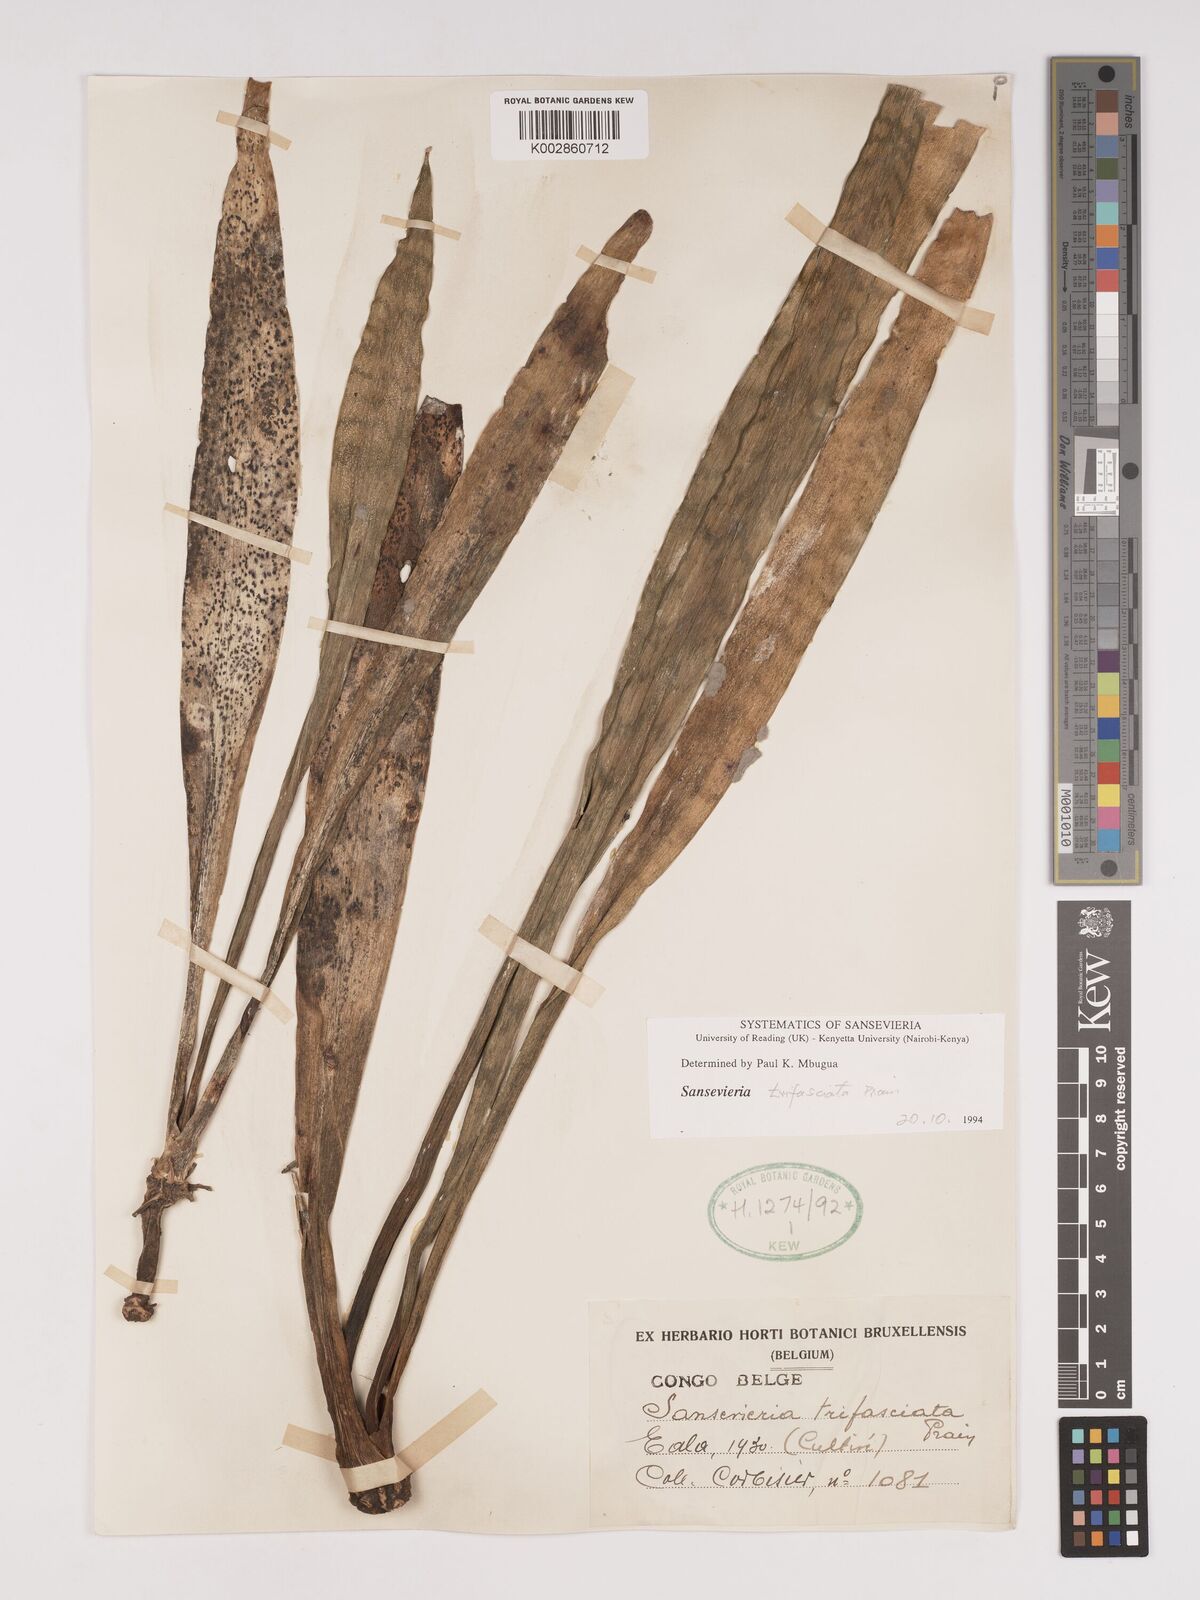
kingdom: Plantae
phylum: Tracheophyta
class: Liliopsida
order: Asparagales
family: Asparagaceae
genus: Dracaena
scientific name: Dracaena trifasciata
